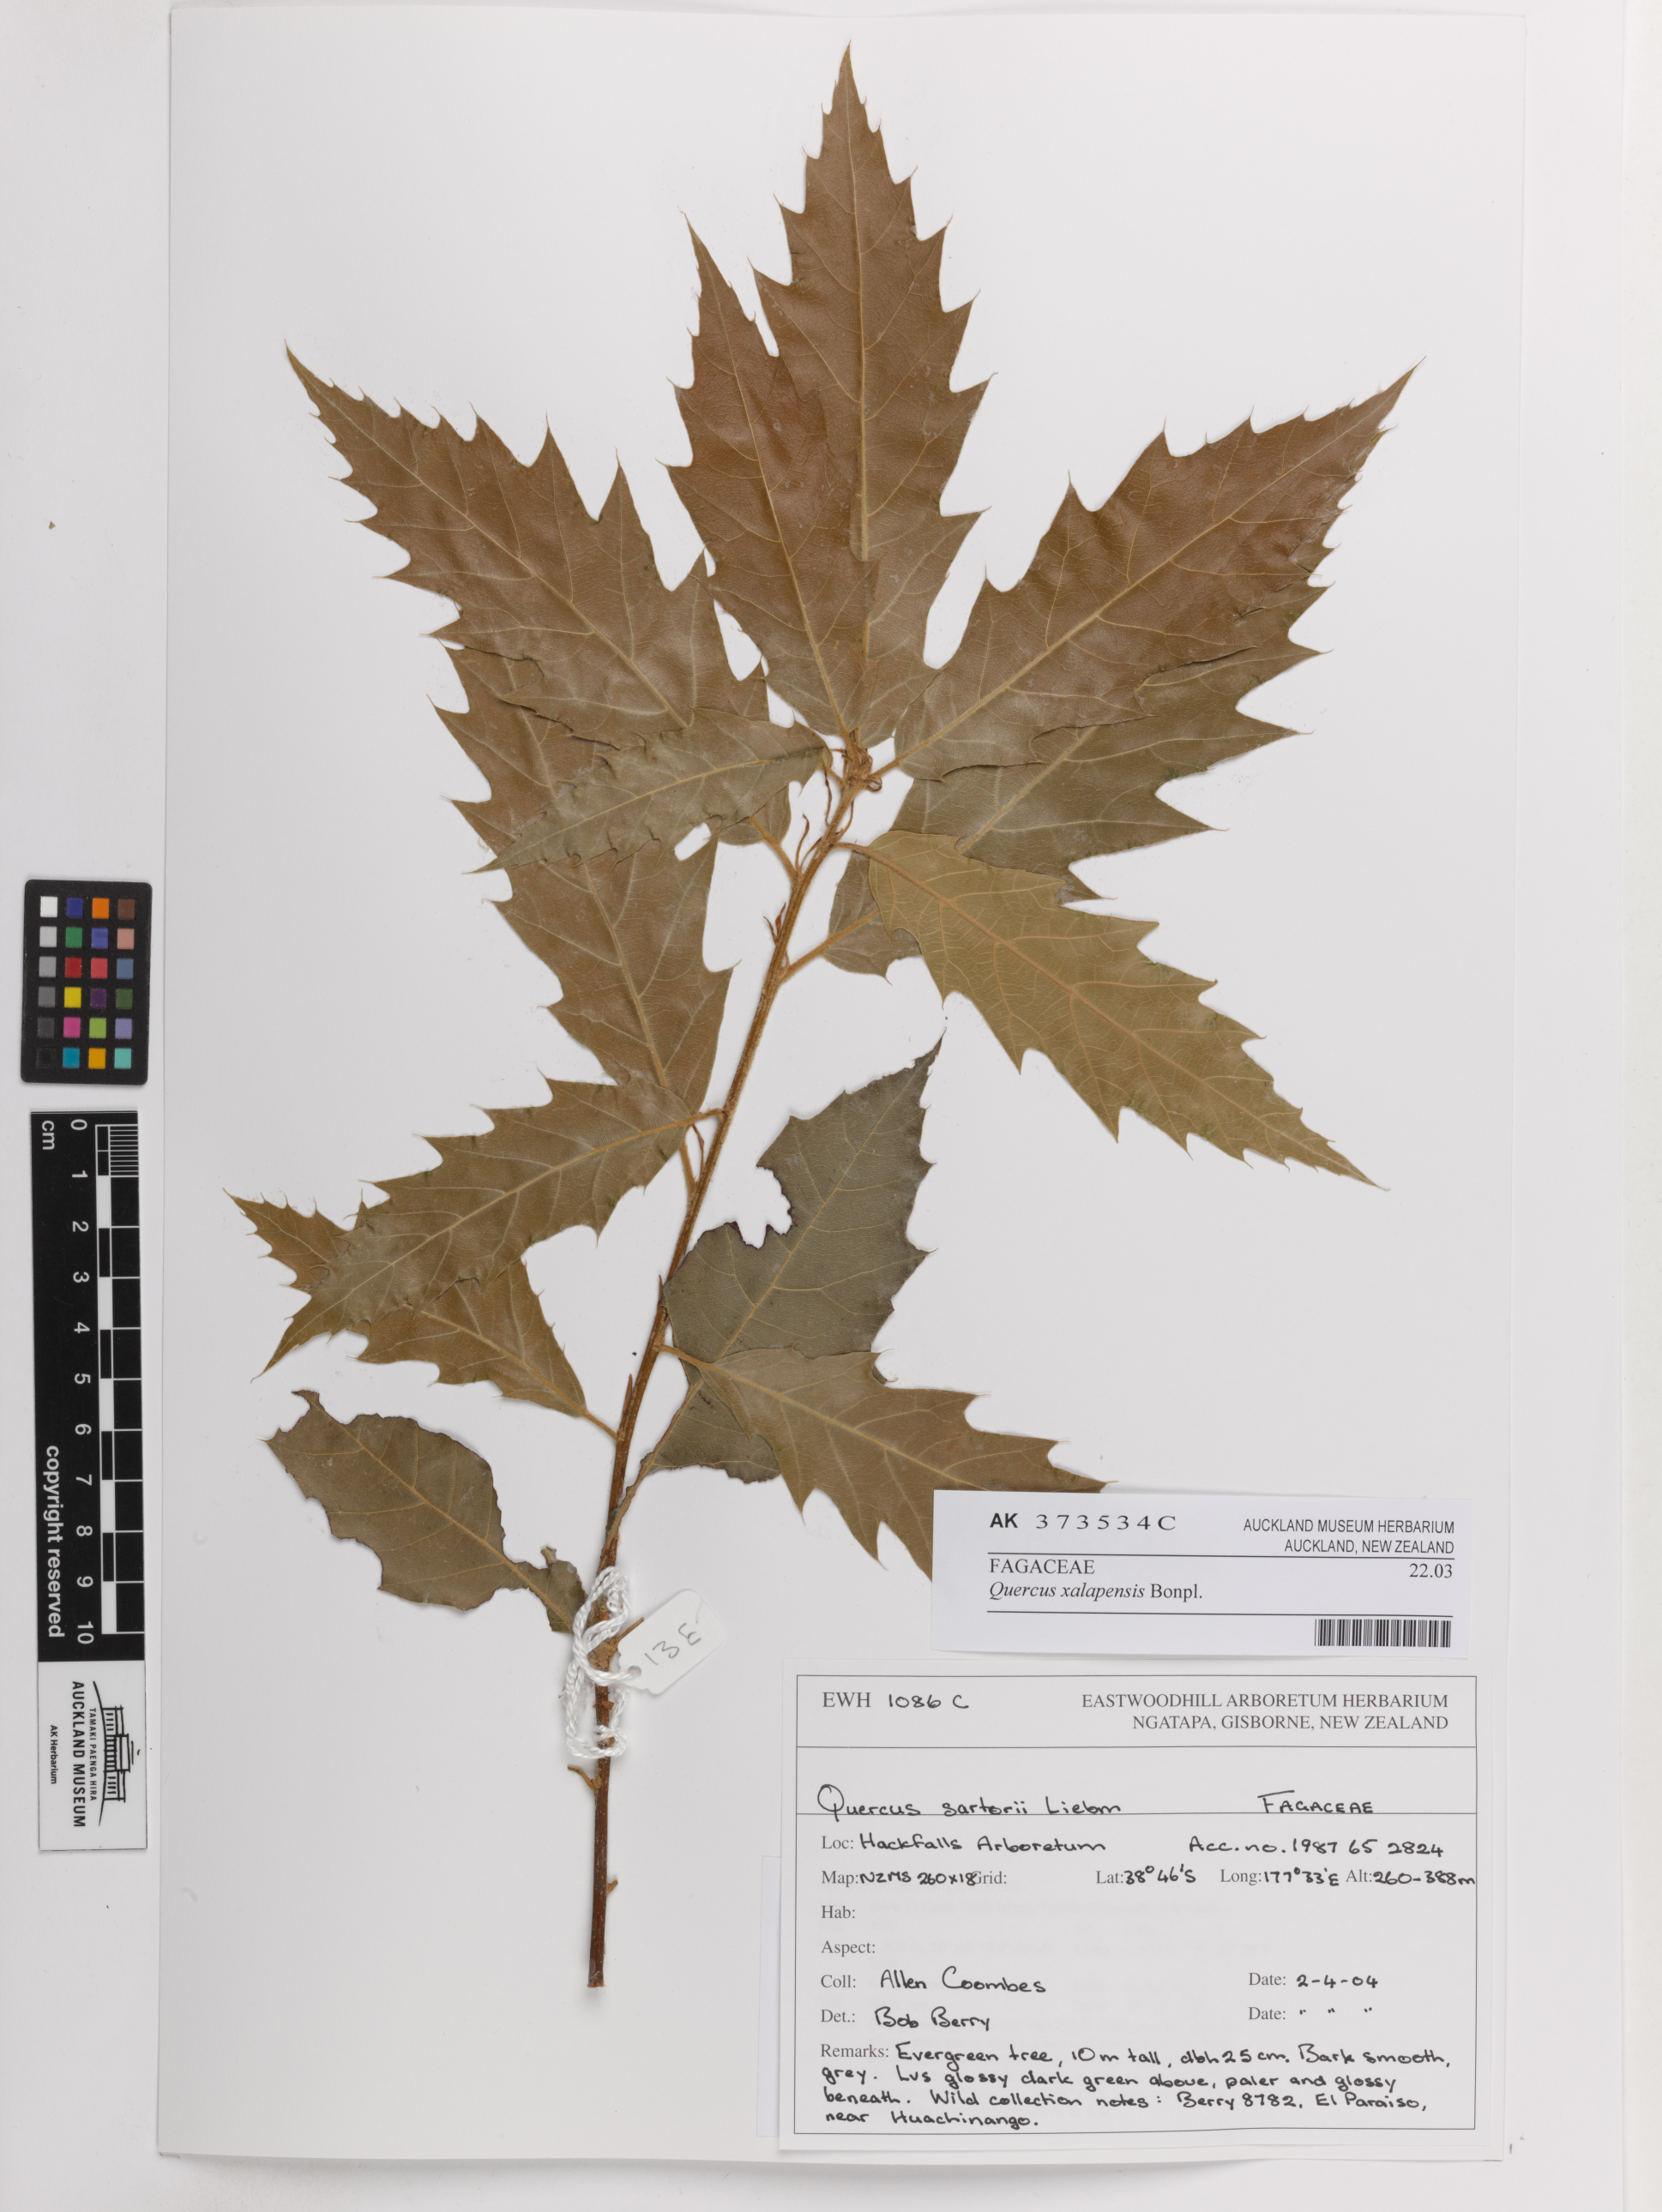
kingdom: Plantae
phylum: Tracheophyta
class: Magnoliopsida
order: Fagales
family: Fagaceae
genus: Quercus
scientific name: Quercus xalapensis
